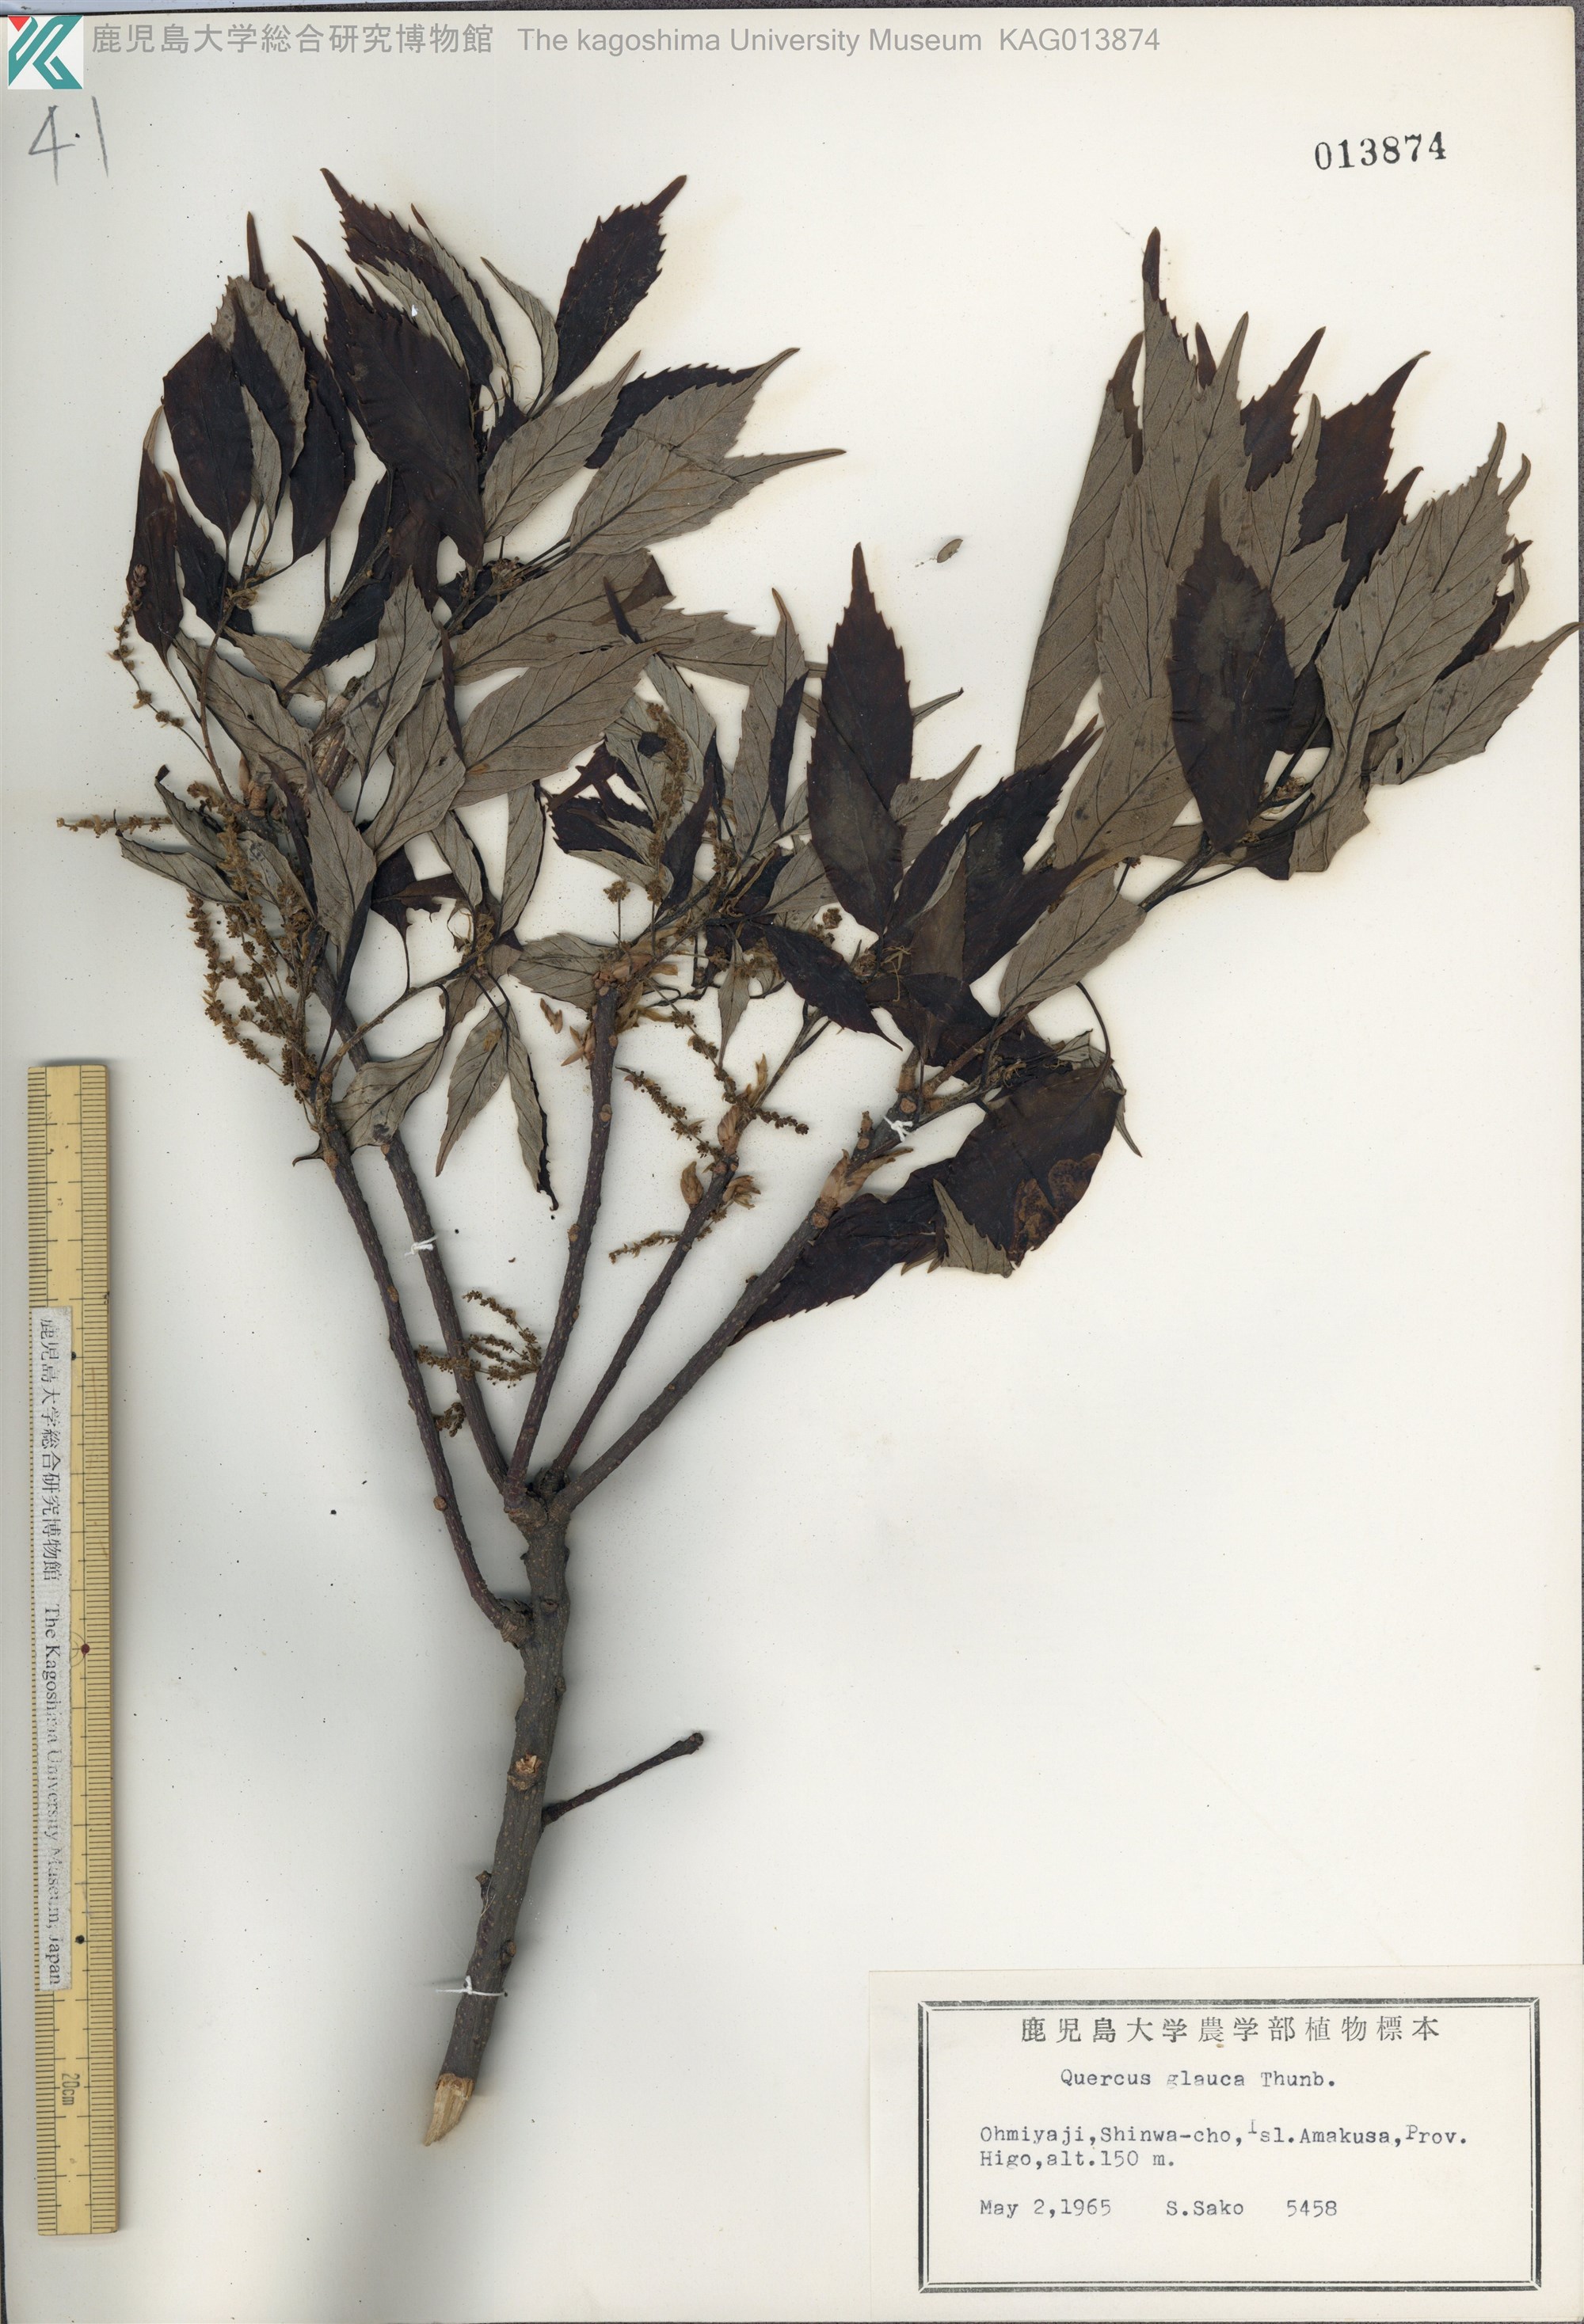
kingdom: Plantae
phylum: Tracheophyta
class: Magnoliopsida
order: Fagales
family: Fagaceae
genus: Quercus
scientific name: Quercus glauca
